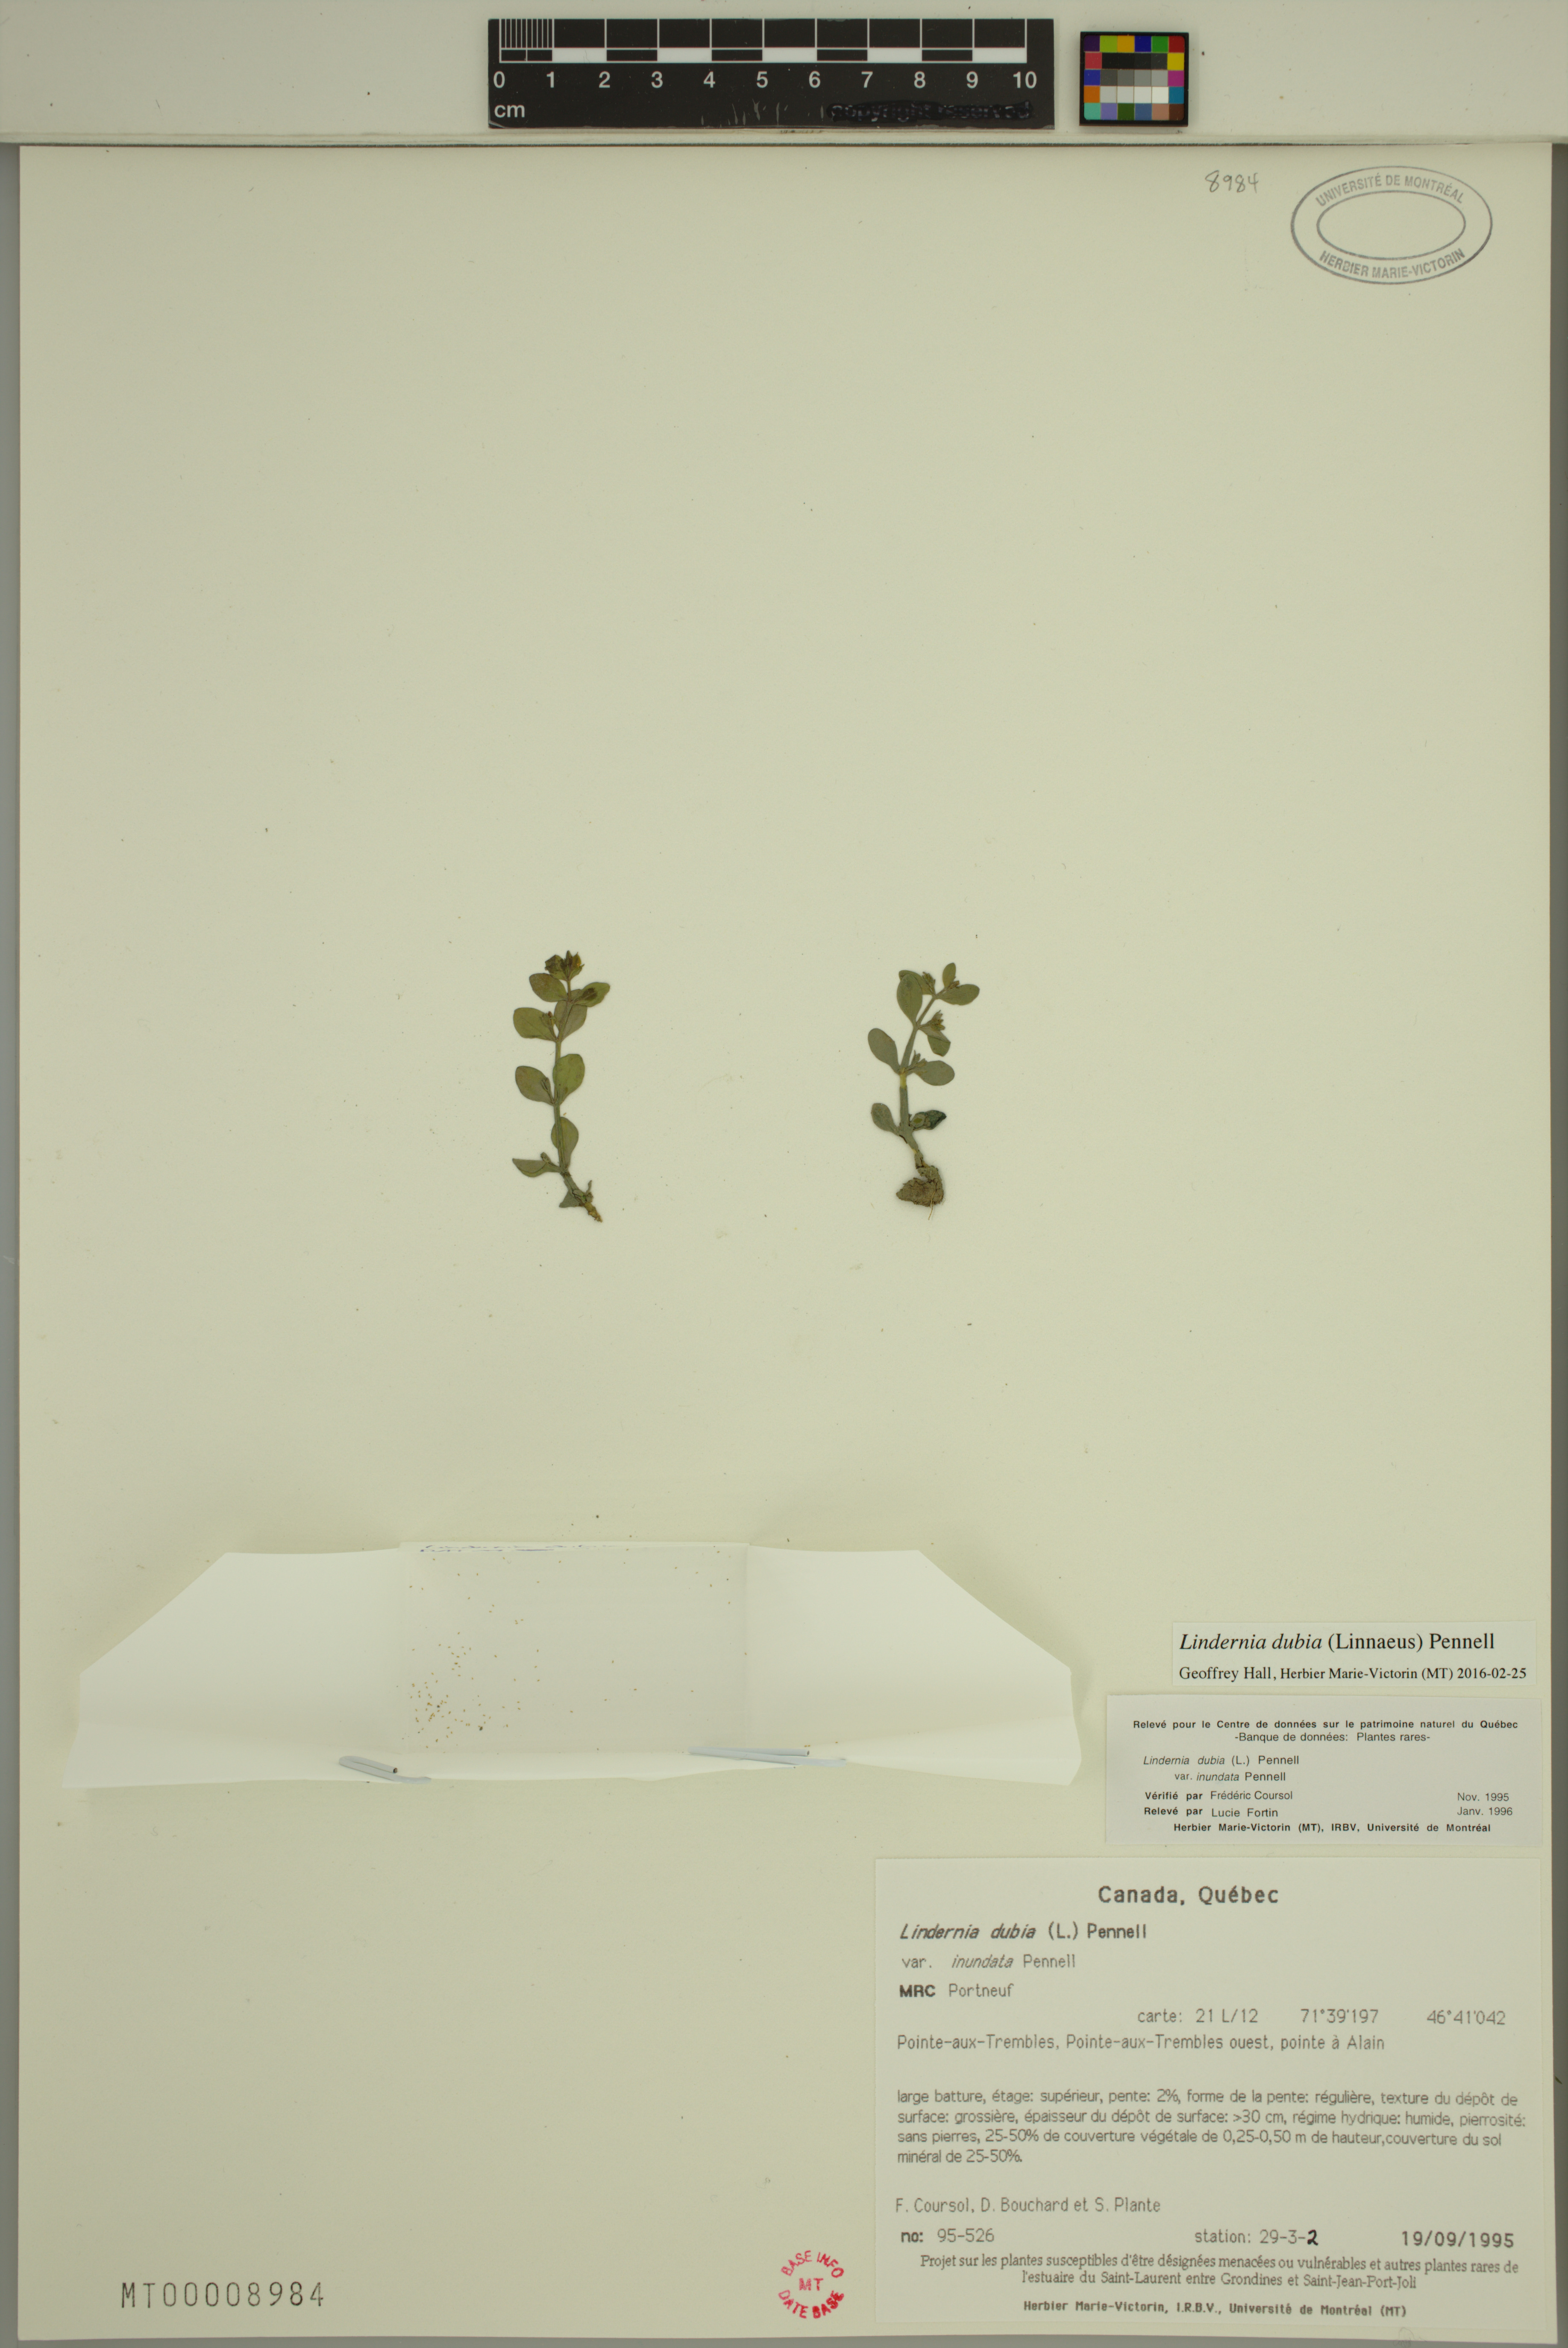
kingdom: Plantae
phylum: Tracheophyta
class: Magnoliopsida
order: Lamiales
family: Linderniaceae
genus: Lindernia
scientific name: Lindernia dubia
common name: Annual false pimpernel
